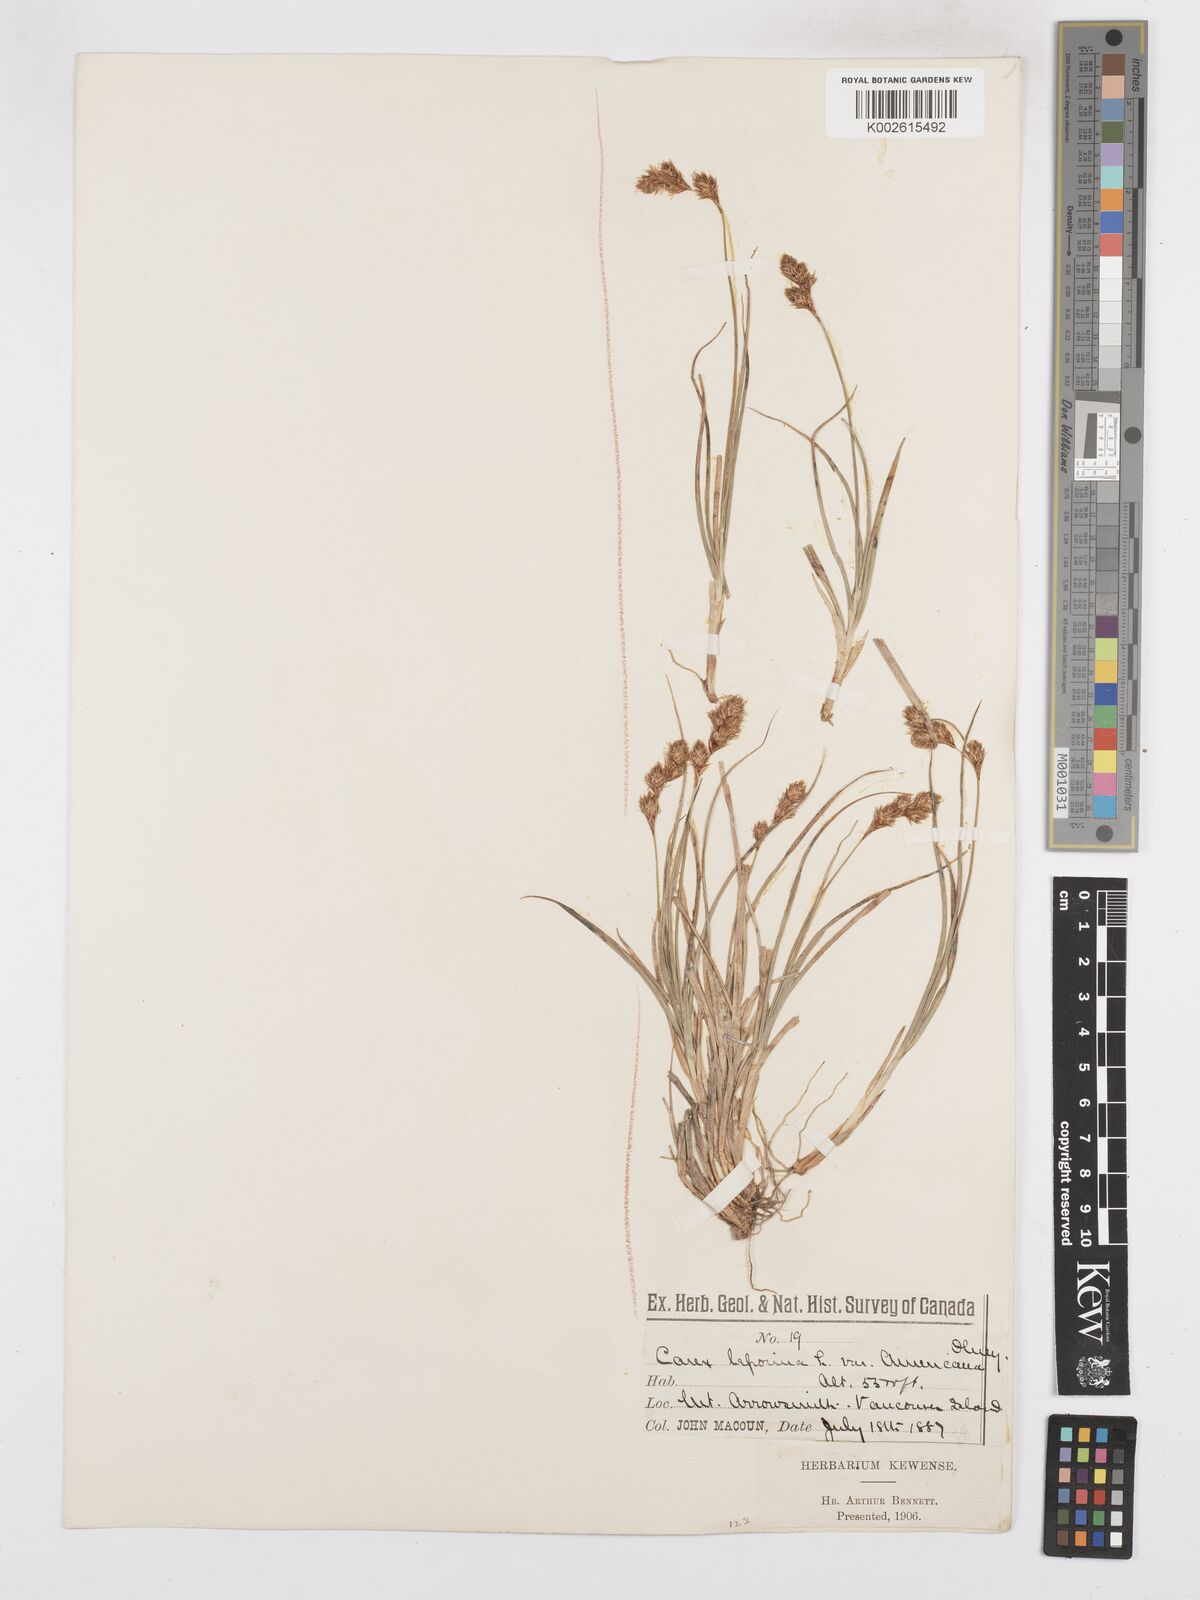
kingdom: Plantae
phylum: Tracheophyta
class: Liliopsida
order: Poales
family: Cyperaceae
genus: Carex
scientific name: Carex macloviana
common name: Falkland island sedge
